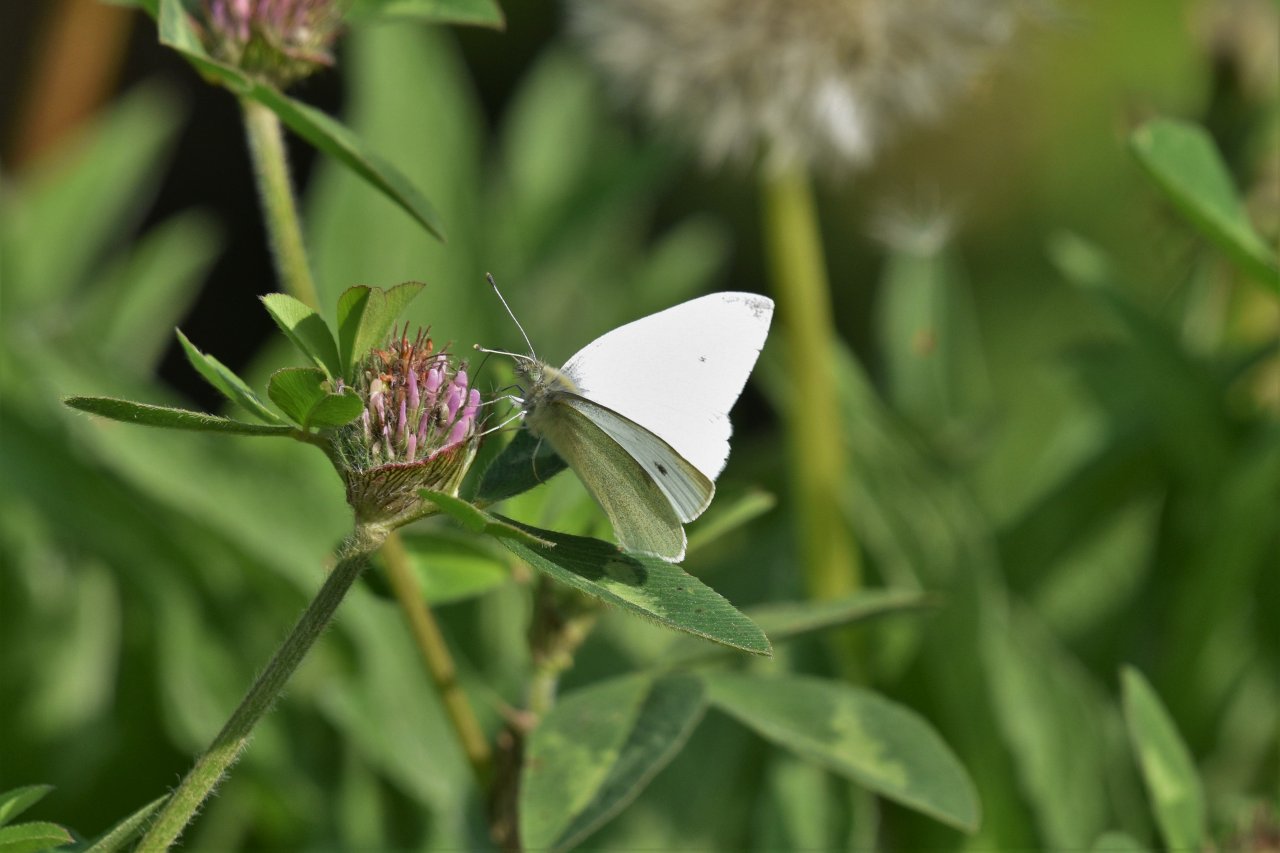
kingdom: Animalia
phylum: Arthropoda
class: Insecta
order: Lepidoptera
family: Pieridae
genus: Pieris
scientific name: Pieris rapae
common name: Cabbage White
